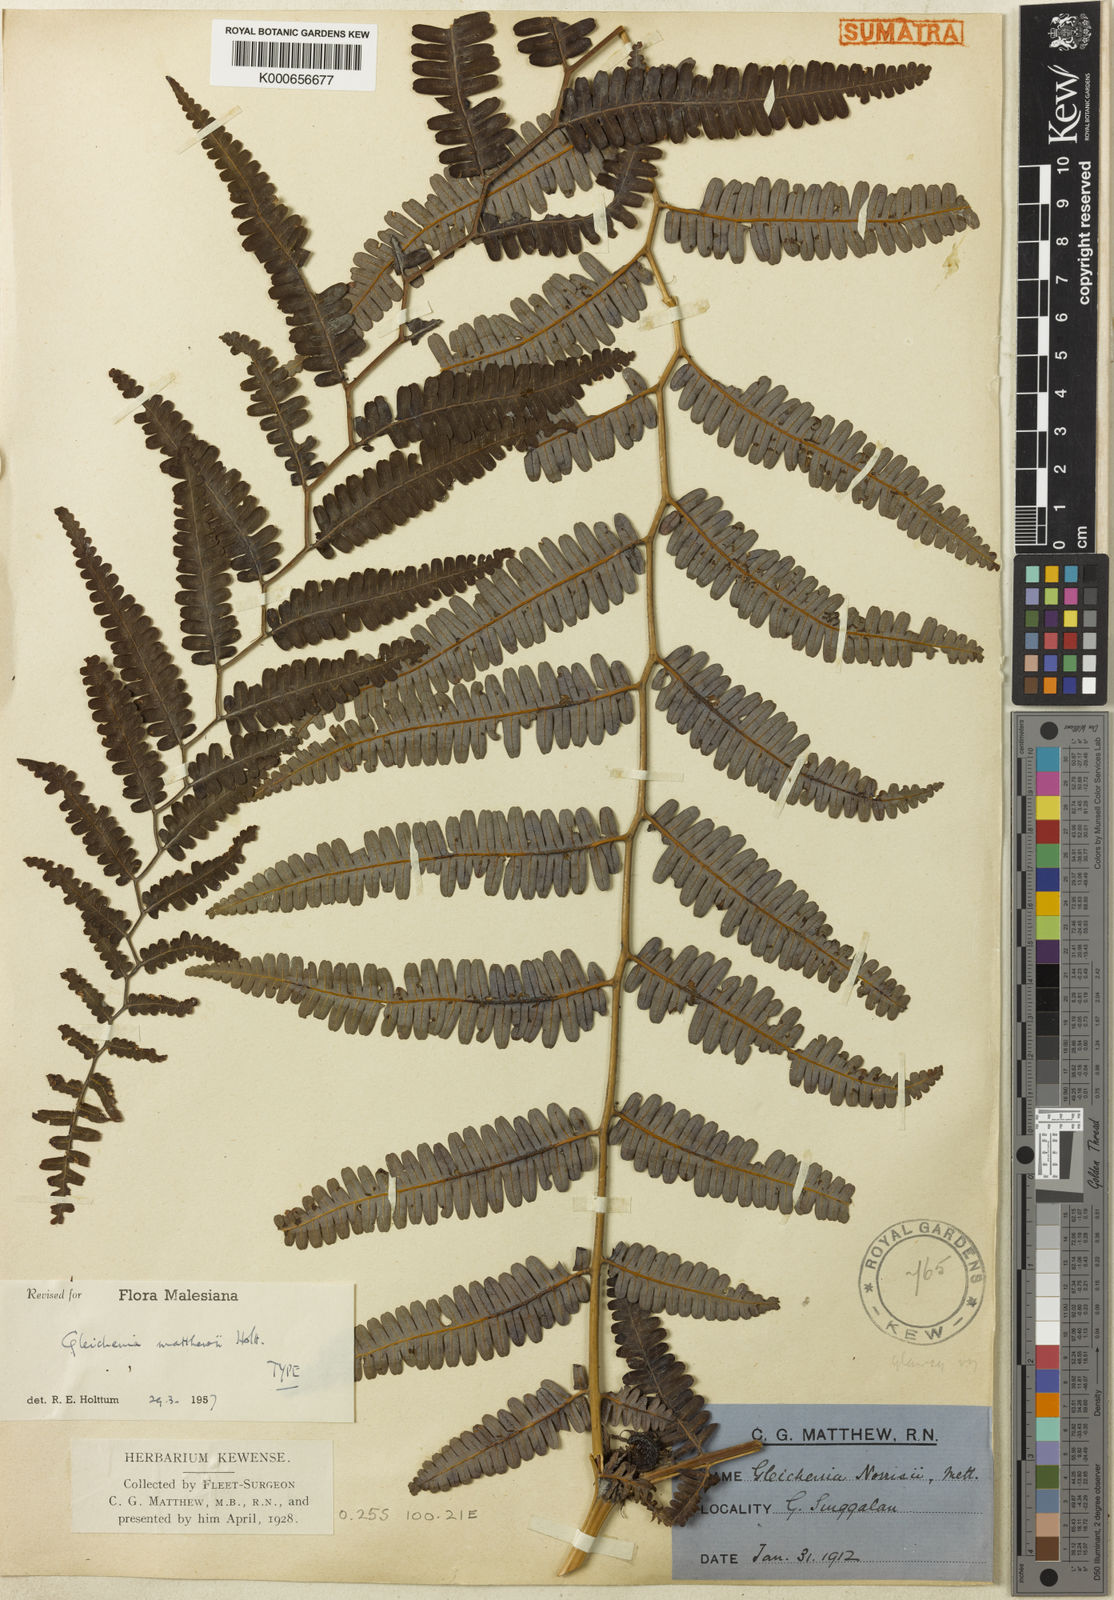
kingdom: Plantae
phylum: Tracheophyta
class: Polypodiopsida
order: Gleicheniales
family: Gleicheniaceae
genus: Diplopterygium
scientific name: Diplopterygium
